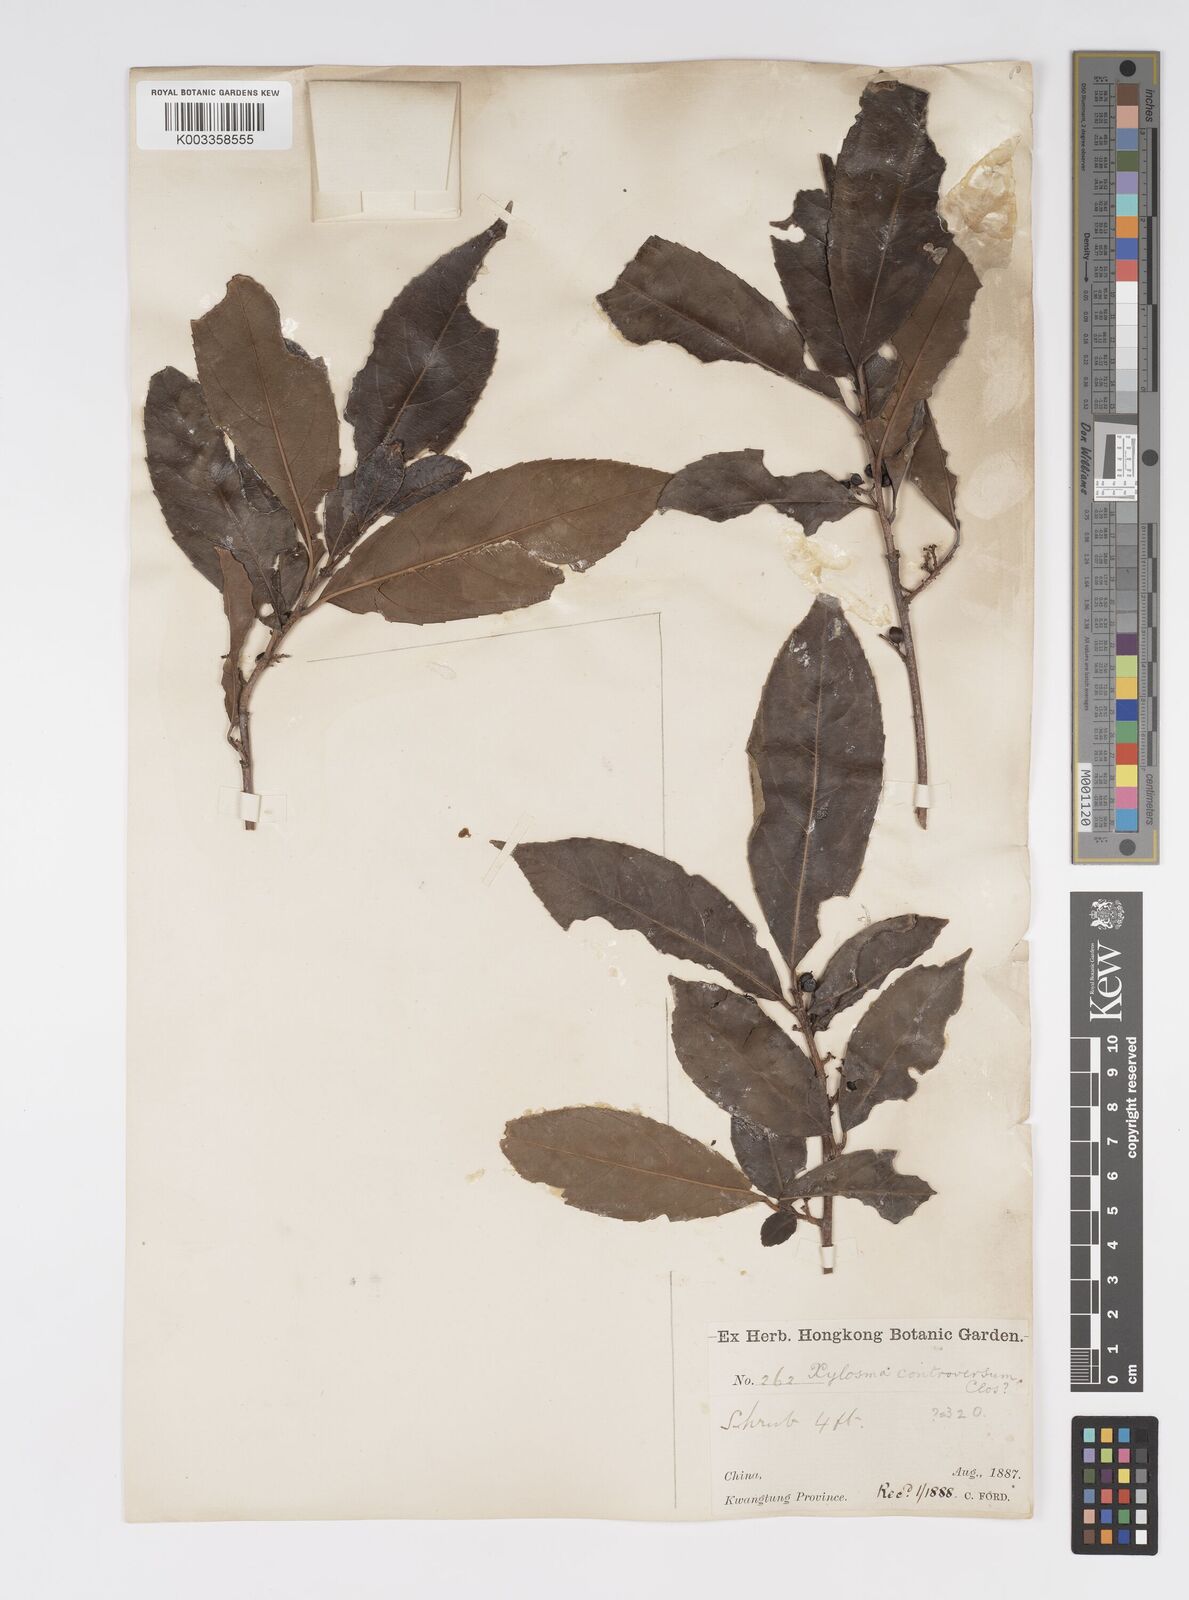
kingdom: Plantae
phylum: Tracheophyta
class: Magnoliopsida
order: Malpighiales
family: Salicaceae
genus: Xylosma
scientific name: Xylosma controversa
